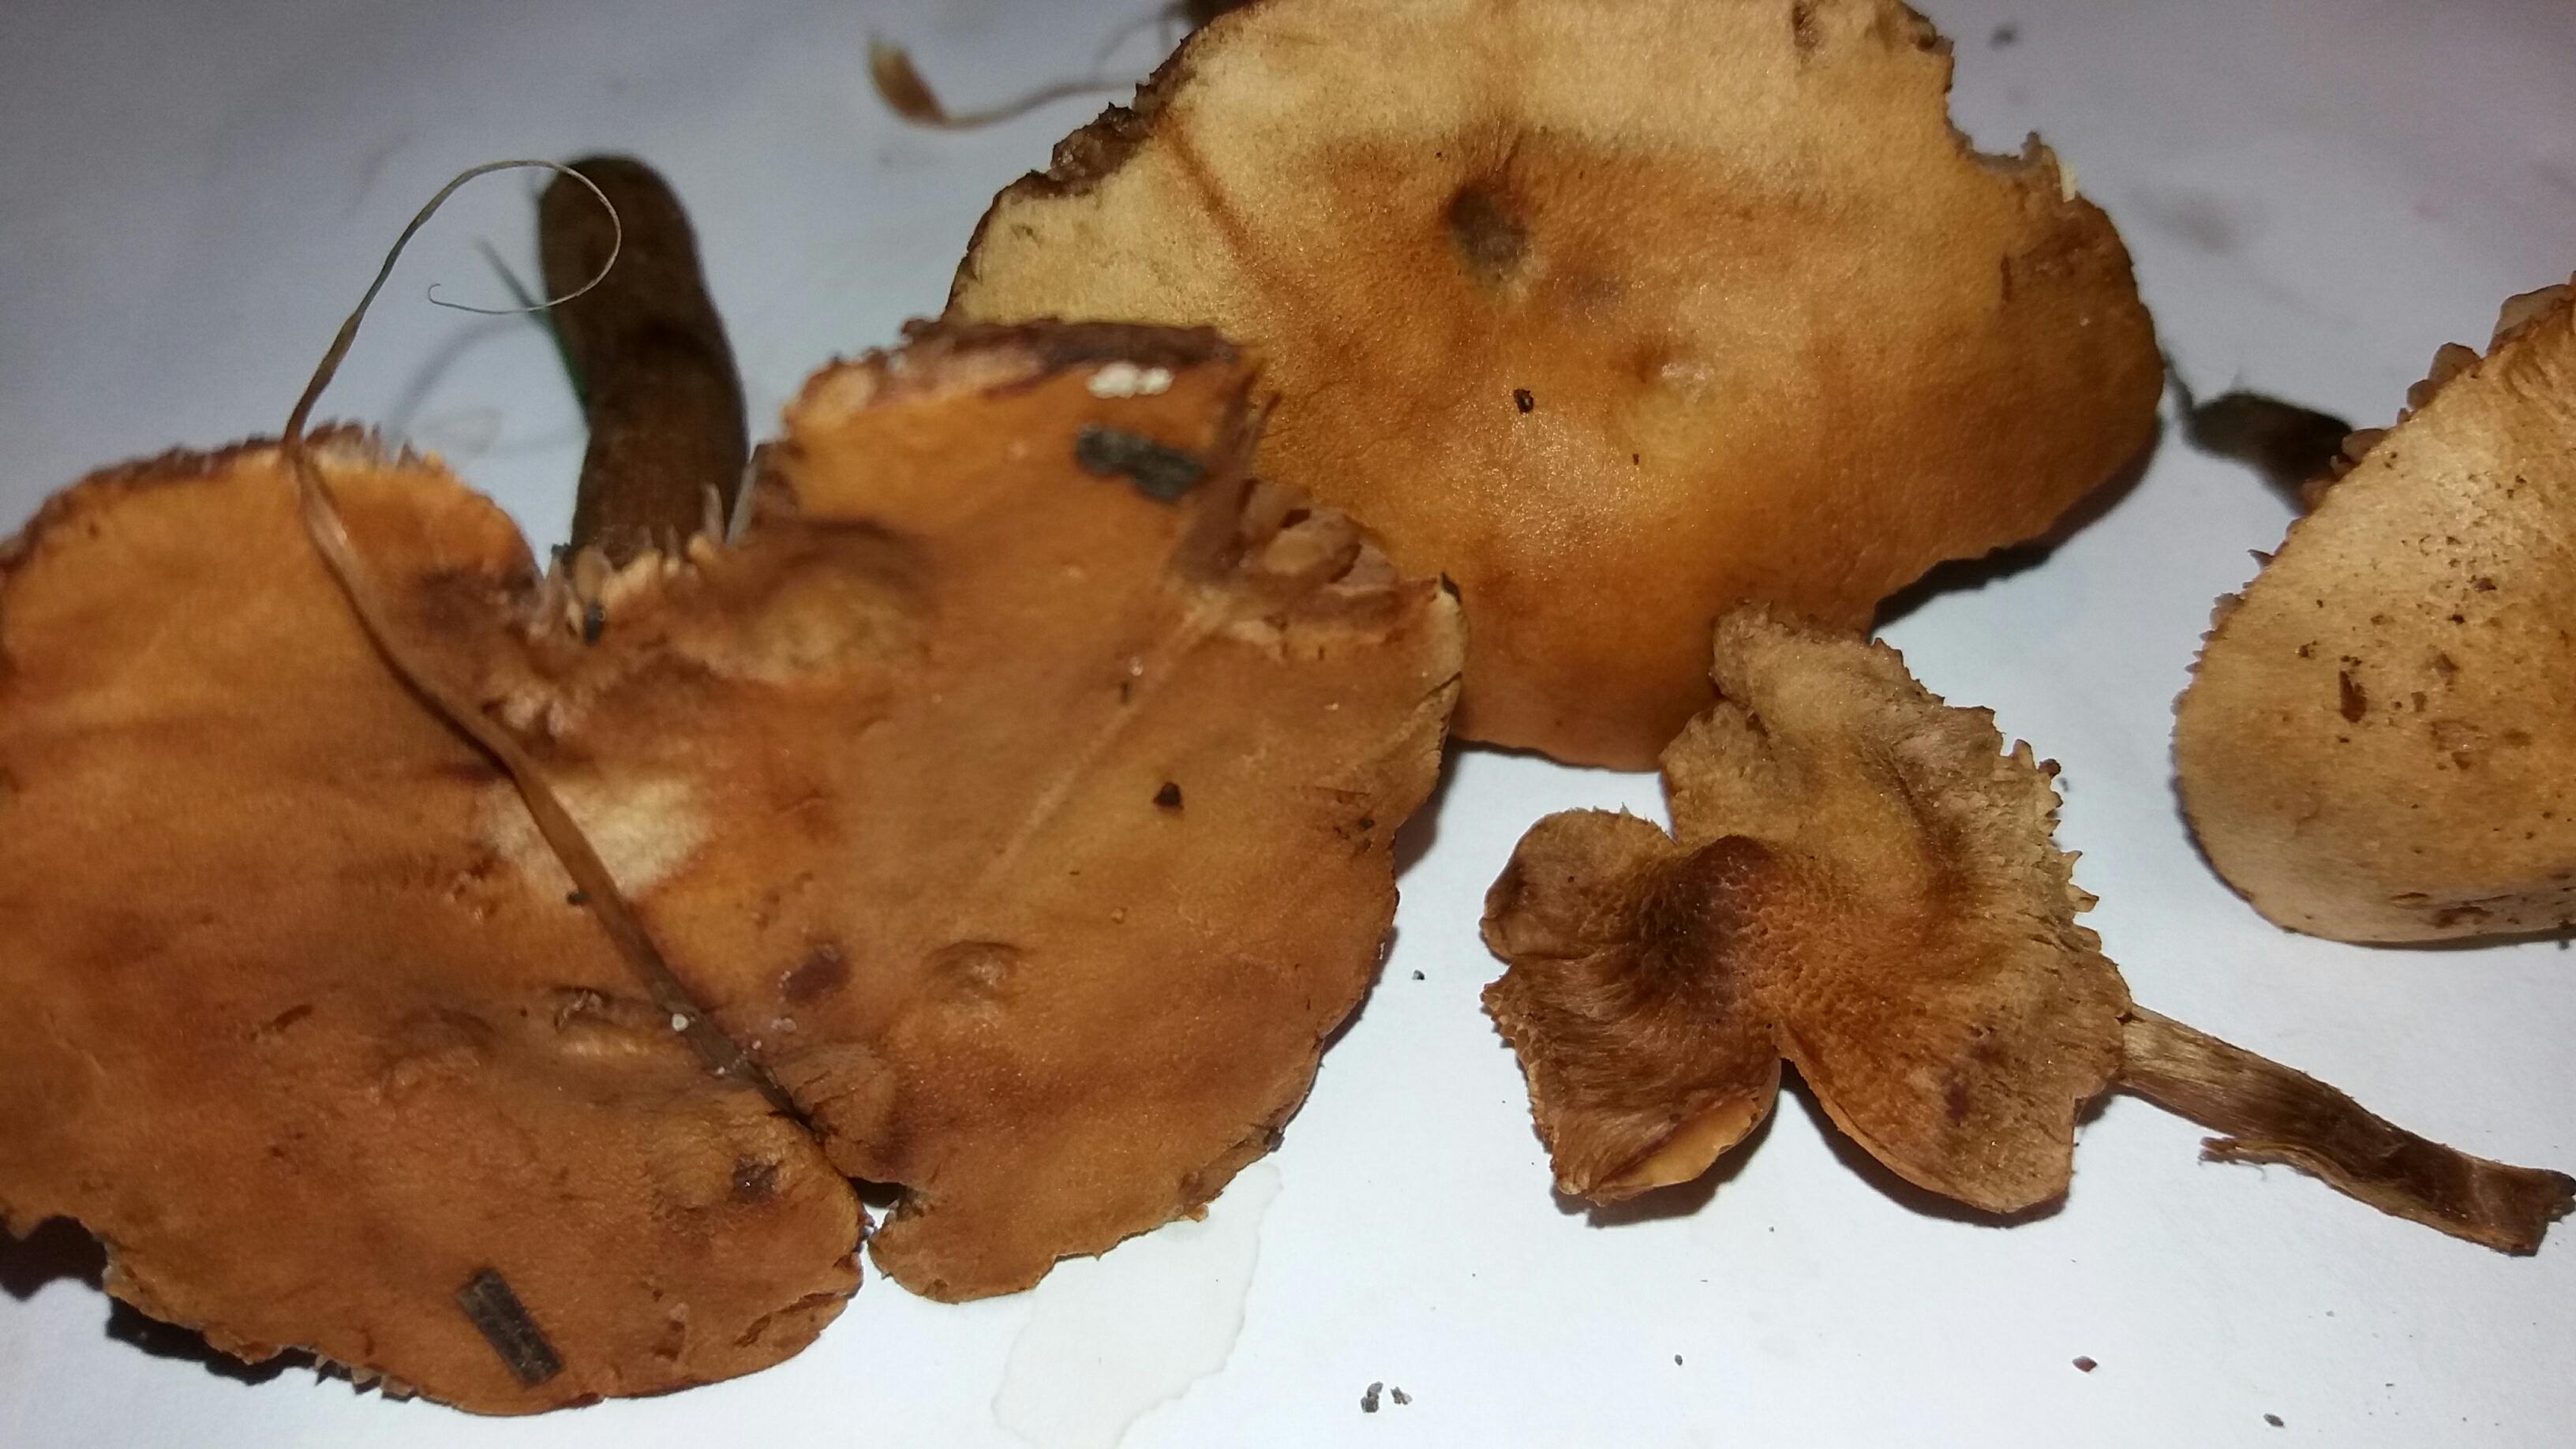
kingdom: Fungi
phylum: Basidiomycota
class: Agaricomycetes
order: Agaricales
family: Hymenogastraceae
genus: Hebeloma
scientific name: Hebeloma sacchariolens
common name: sødtduftende tåreblad
